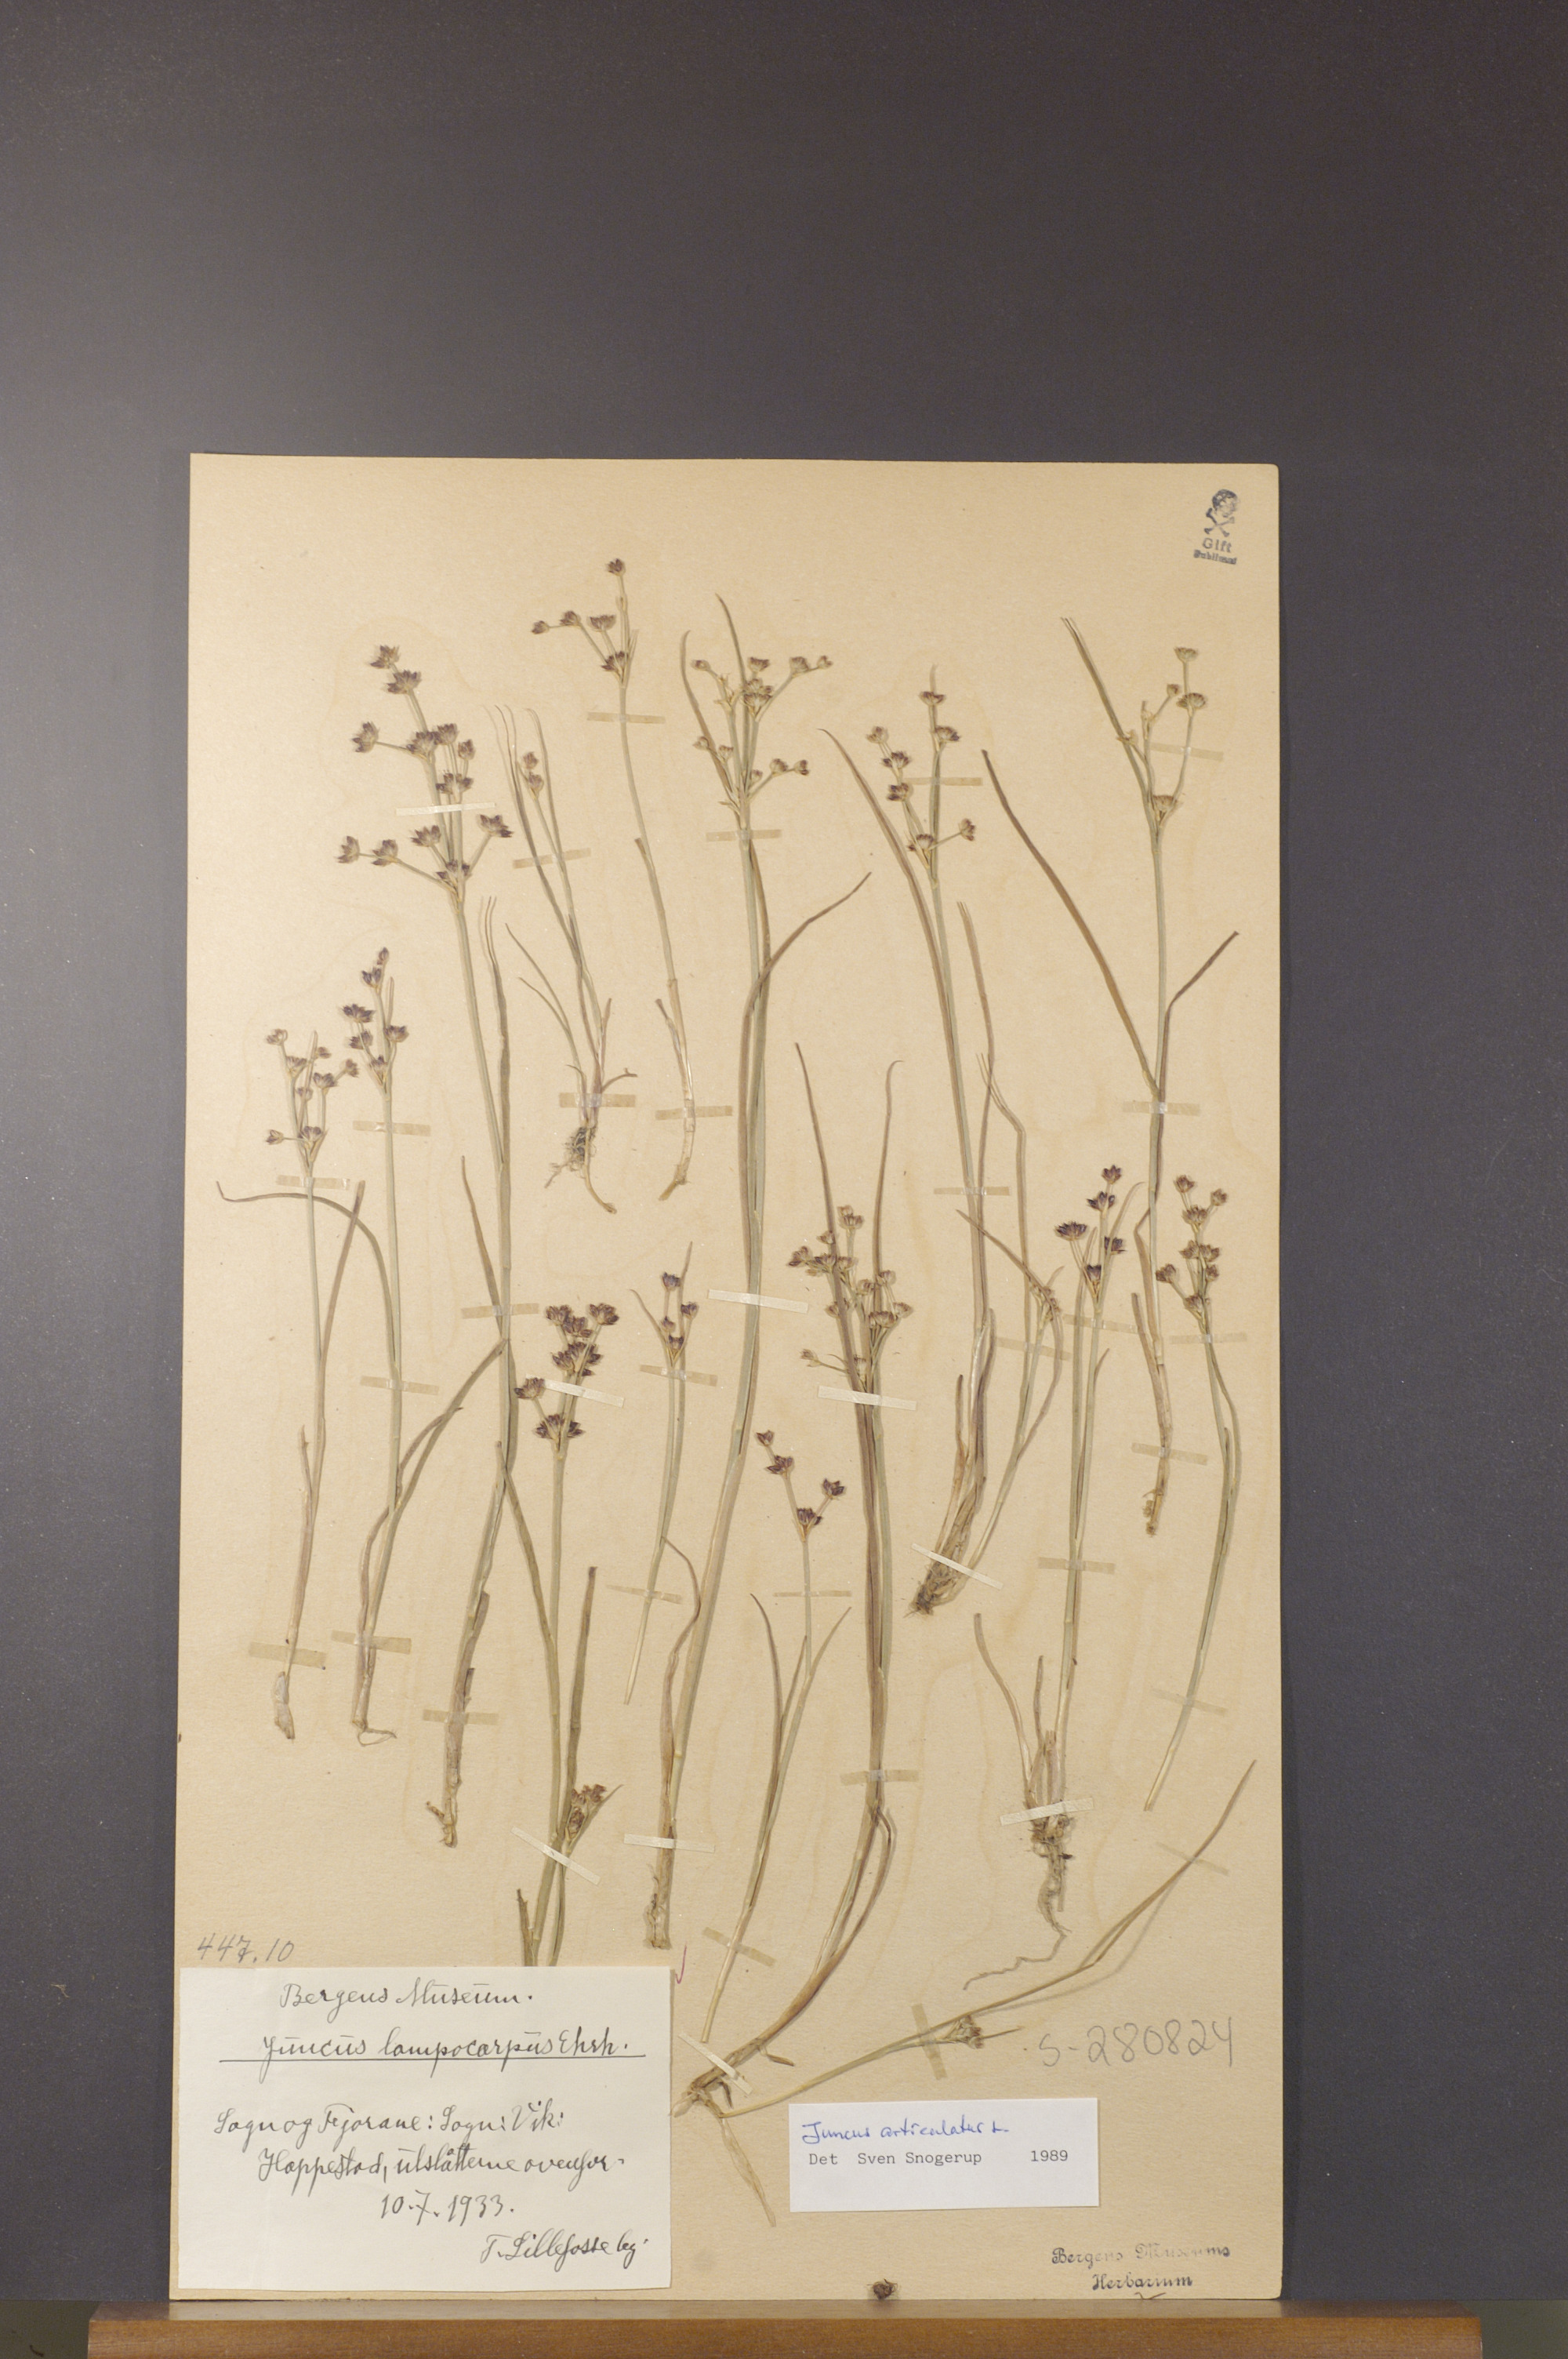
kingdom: Plantae
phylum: Tracheophyta
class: Liliopsida
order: Poales
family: Juncaceae
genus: Juncus
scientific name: Juncus articulatus
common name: Jointed rush
